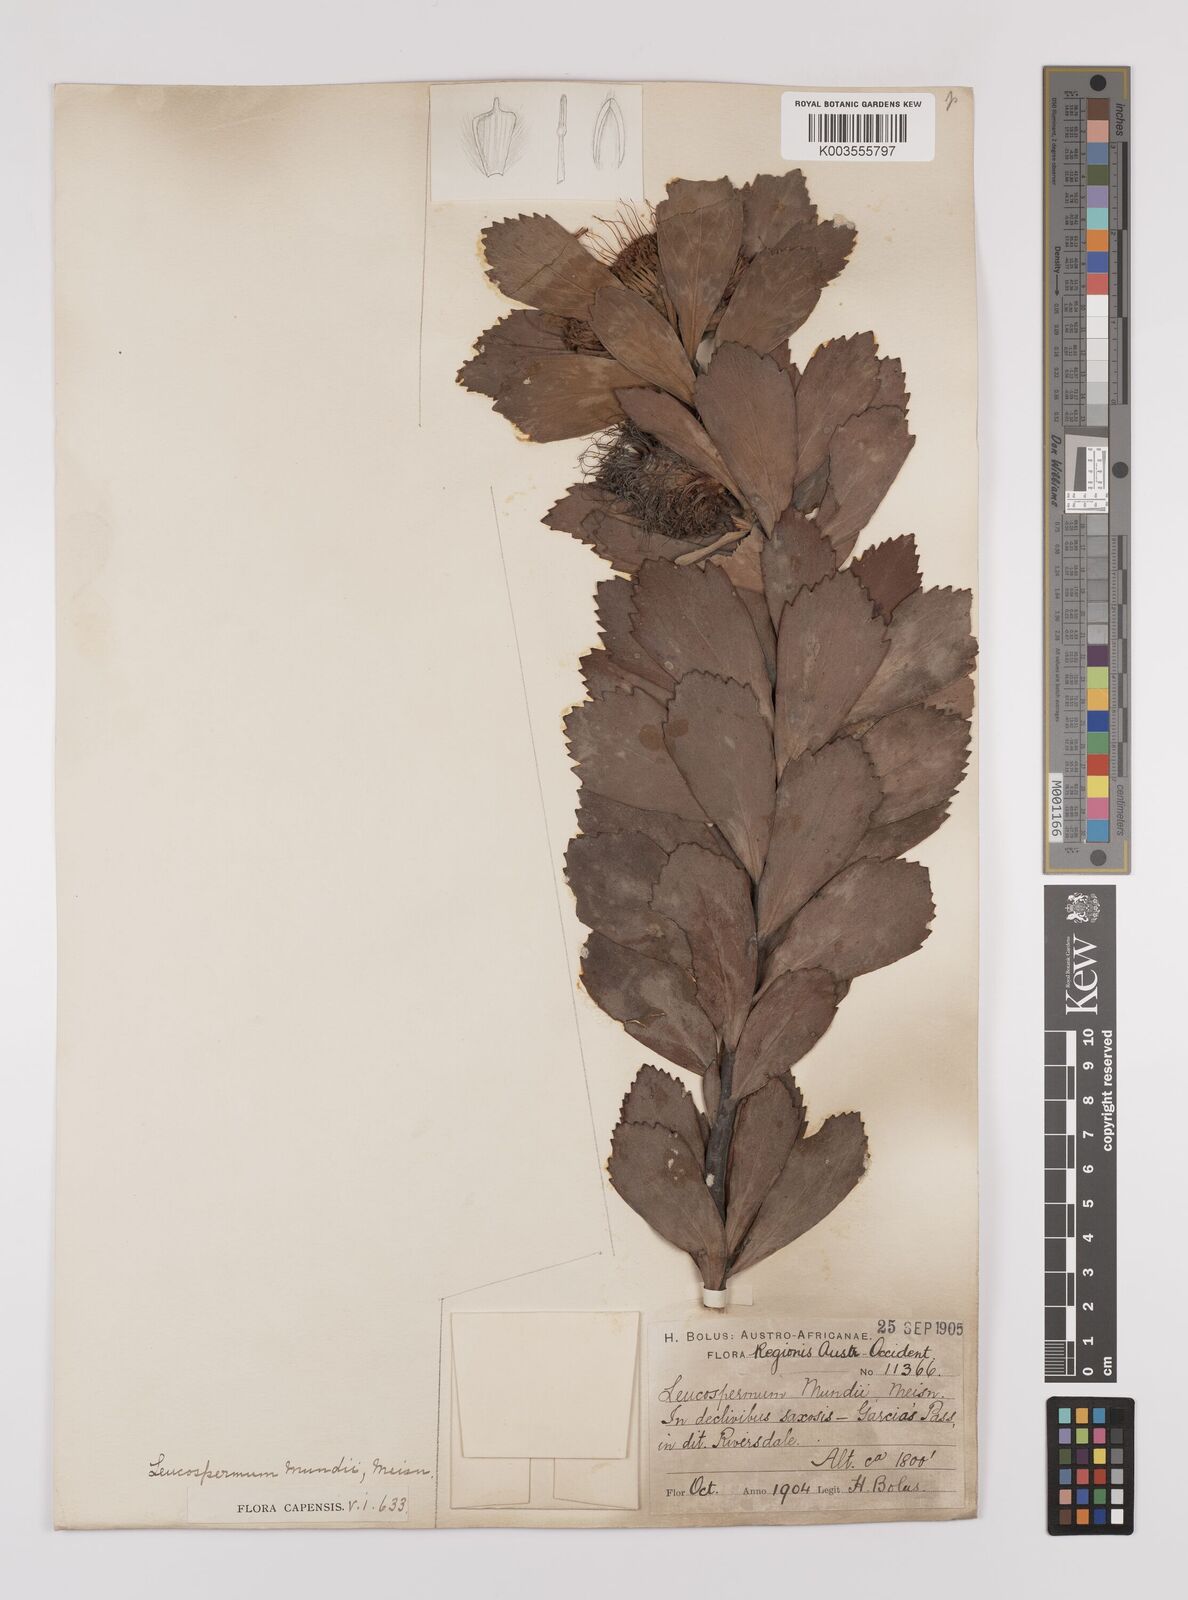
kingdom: Plantae
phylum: Tracheophyta
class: Magnoliopsida
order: Proteales
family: Proteaceae
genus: Leucospermum
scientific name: Leucospermum mundii
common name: Langeberg pincushion
